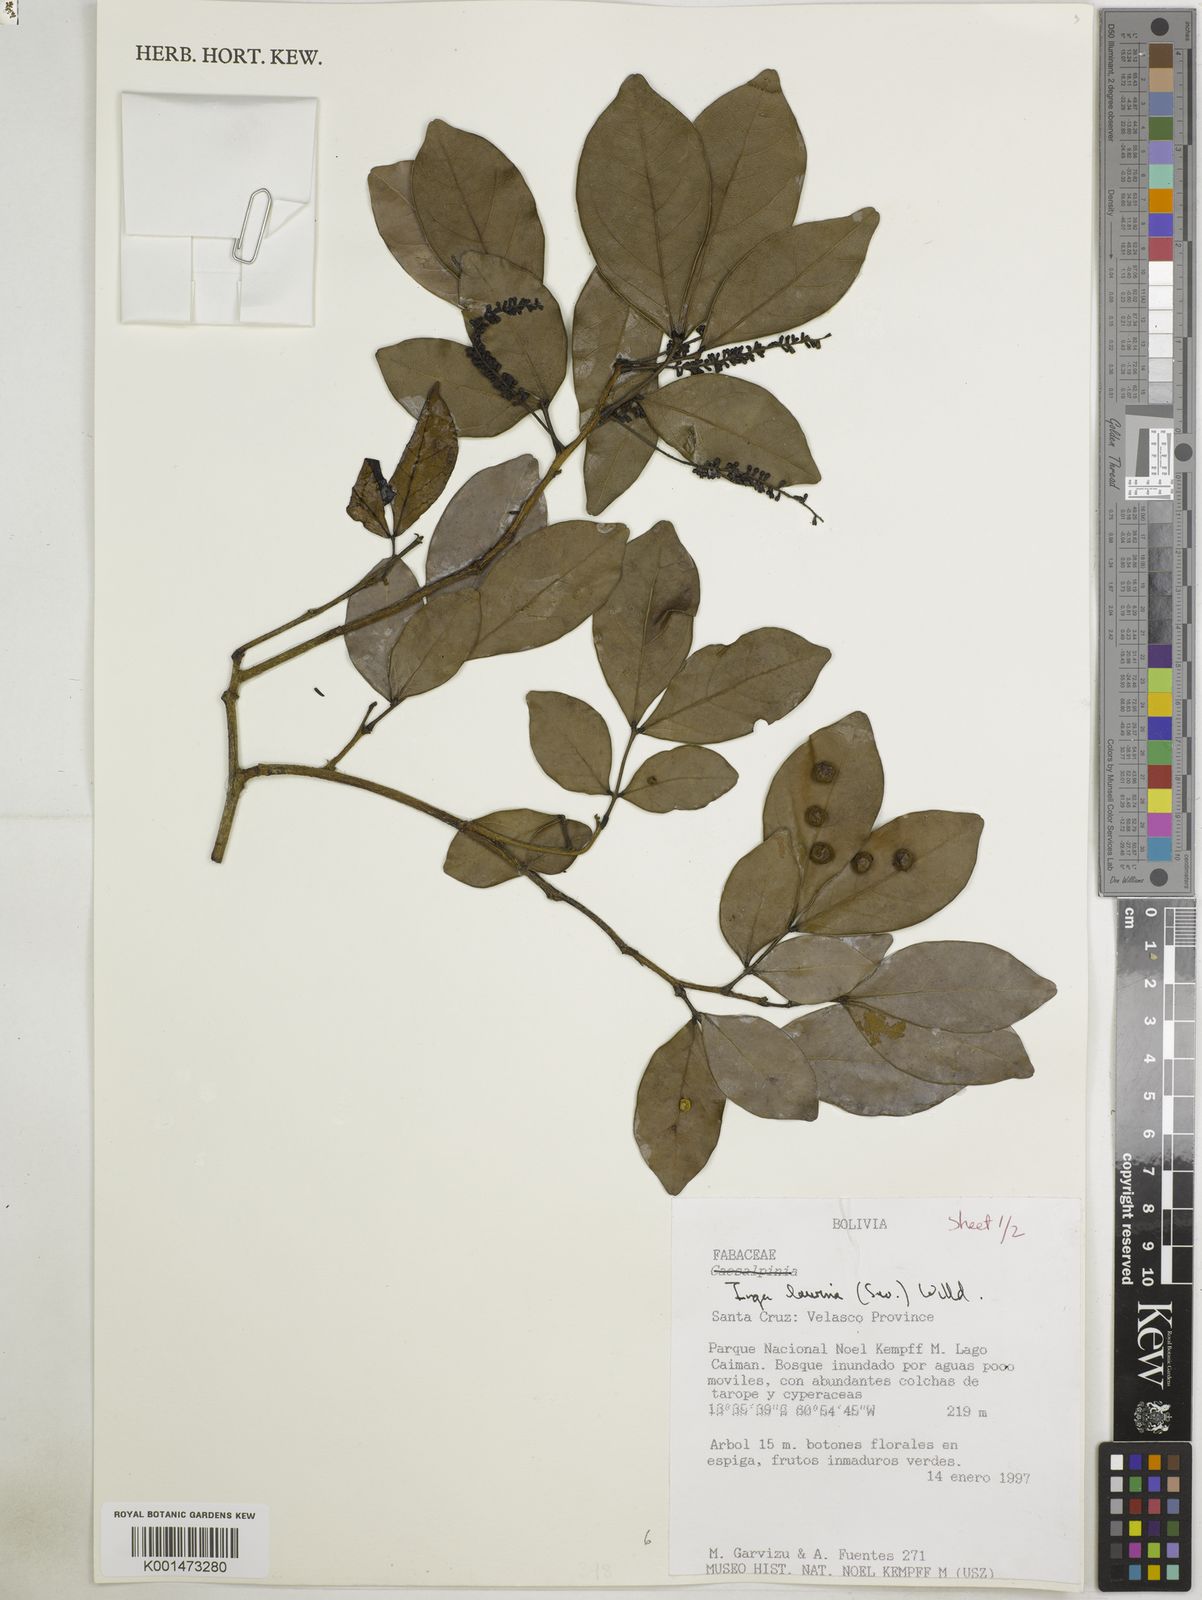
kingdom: Plantae
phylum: Tracheophyta
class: Magnoliopsida
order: Fabales
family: Fabaceae
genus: Inga
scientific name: Inga laurina
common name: Red wood
